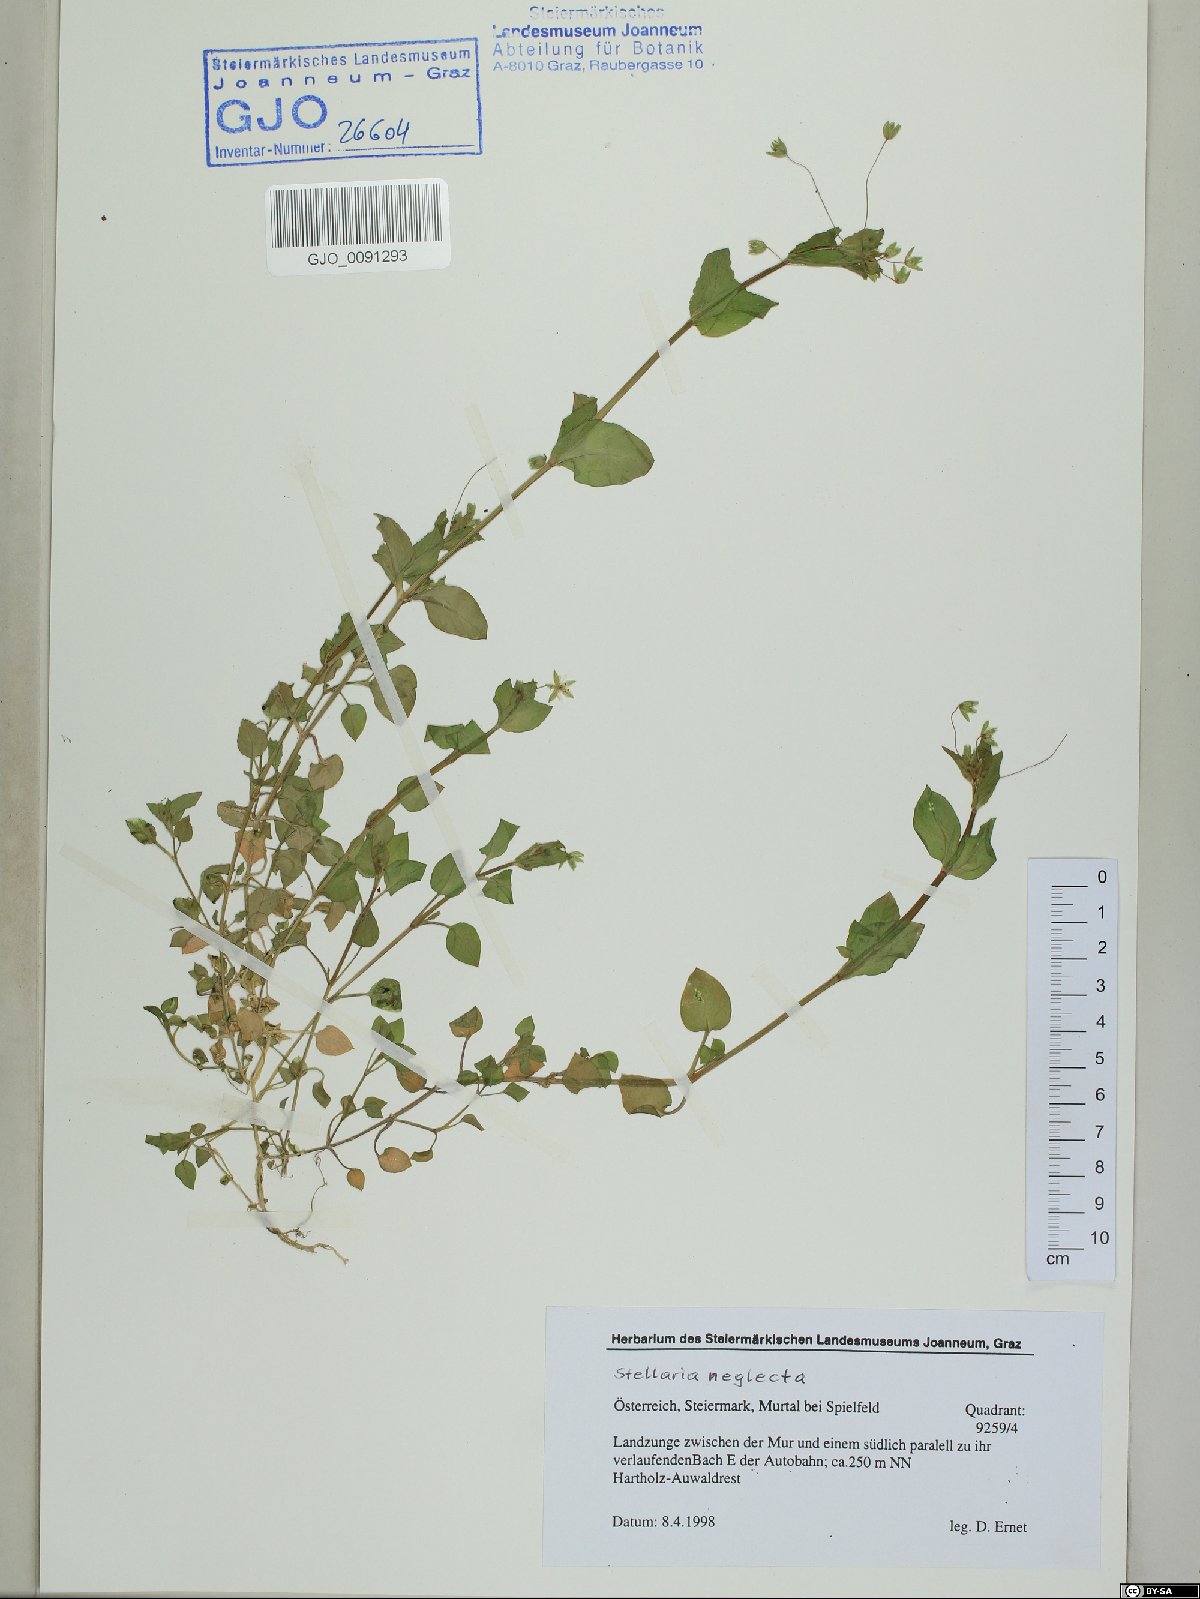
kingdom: Plantae
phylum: Tracheophyta
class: Magnoliopsida
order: Caryophyllales
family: Caryophyllaceae
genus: Stellaria
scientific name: Stellaria neglecta
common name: Greater chickweed
